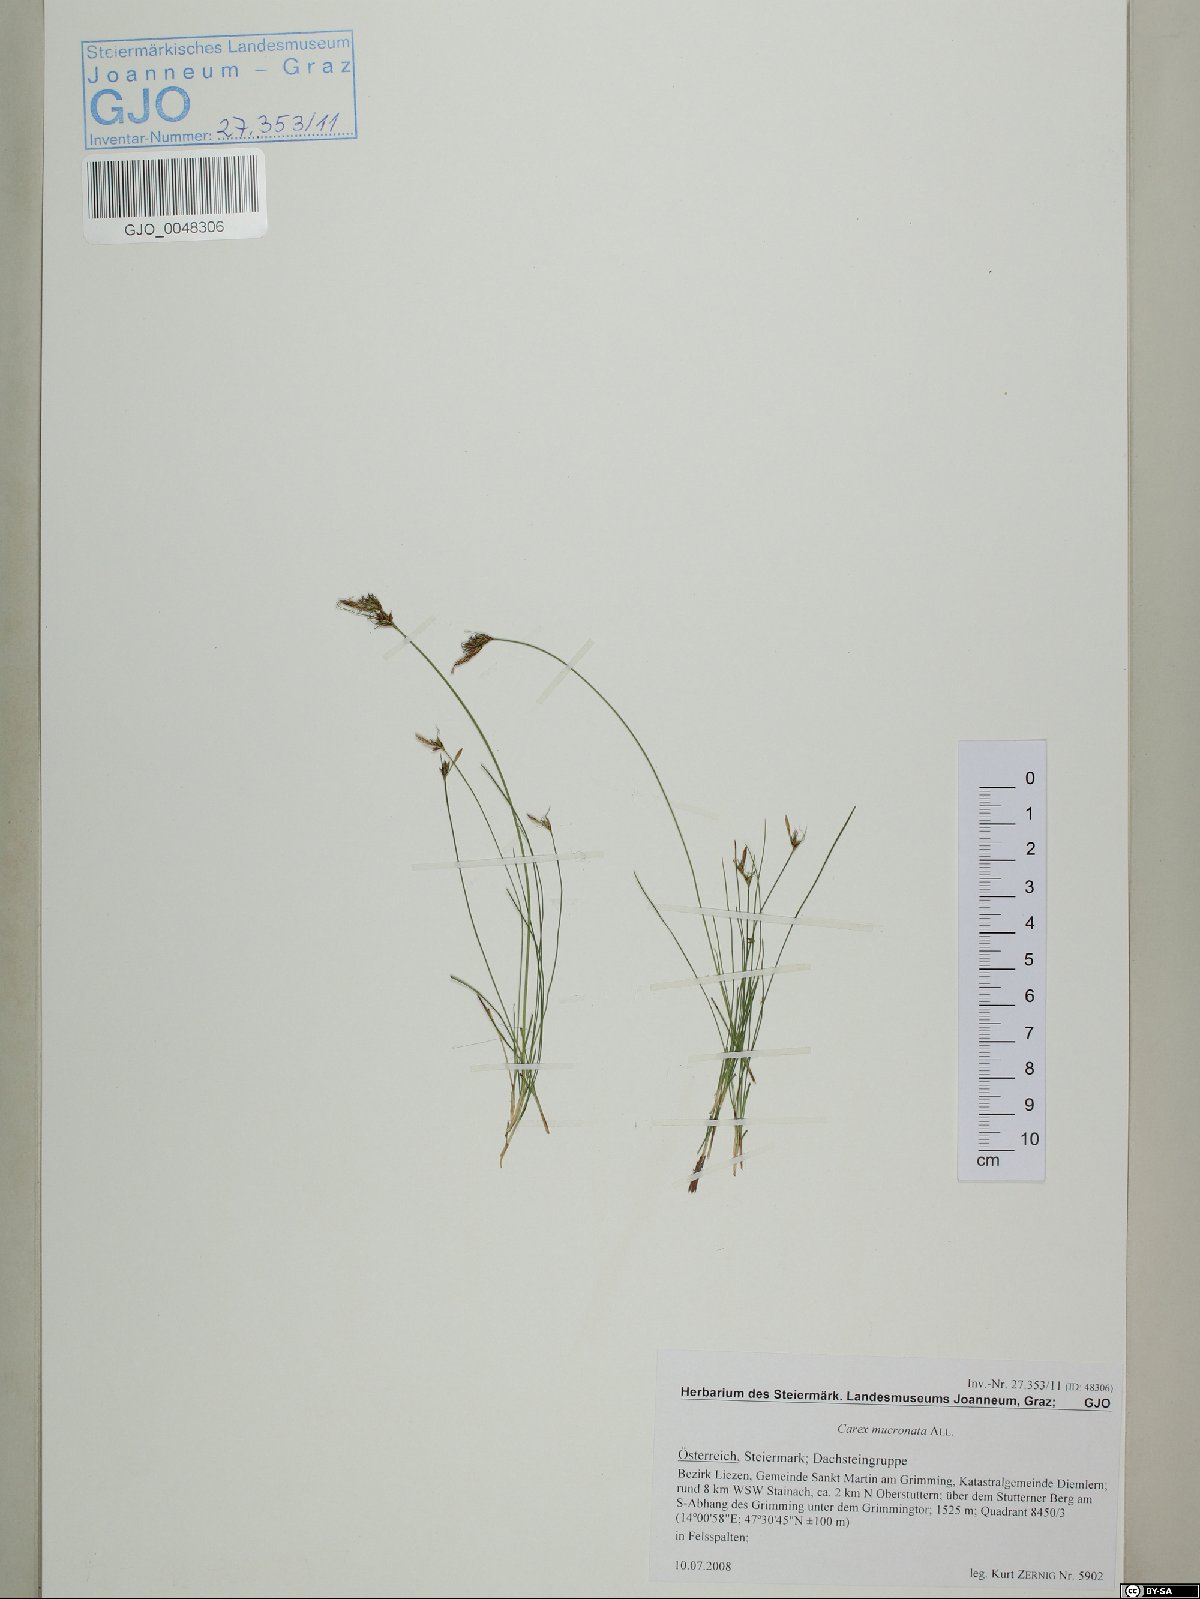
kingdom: Plantae
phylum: Tracheophyta
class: Liliopsida
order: Poales
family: Cyperaceae
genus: Carex
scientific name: Carex mucronata
